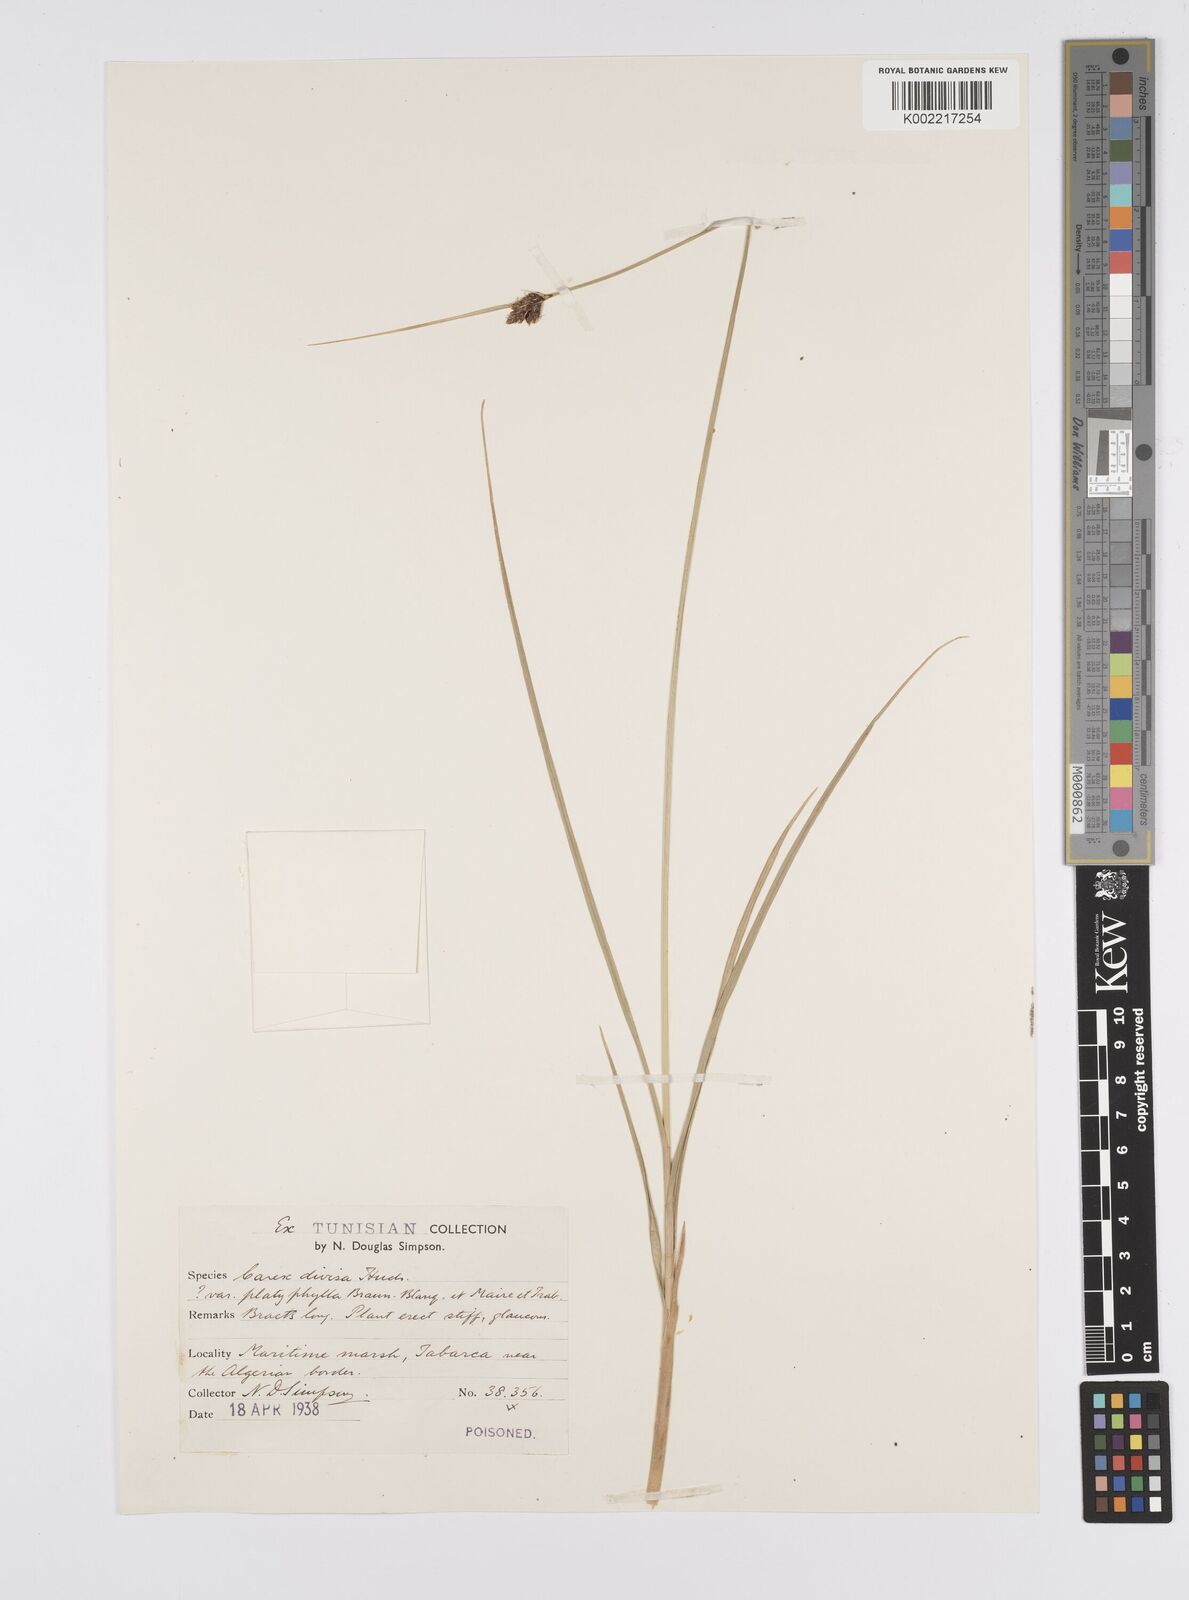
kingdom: Plantae
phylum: Tracheophyta
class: Liliopsida
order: Poales
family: Cyperaceae
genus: Carex
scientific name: Carex divisa
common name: Divided sedge
